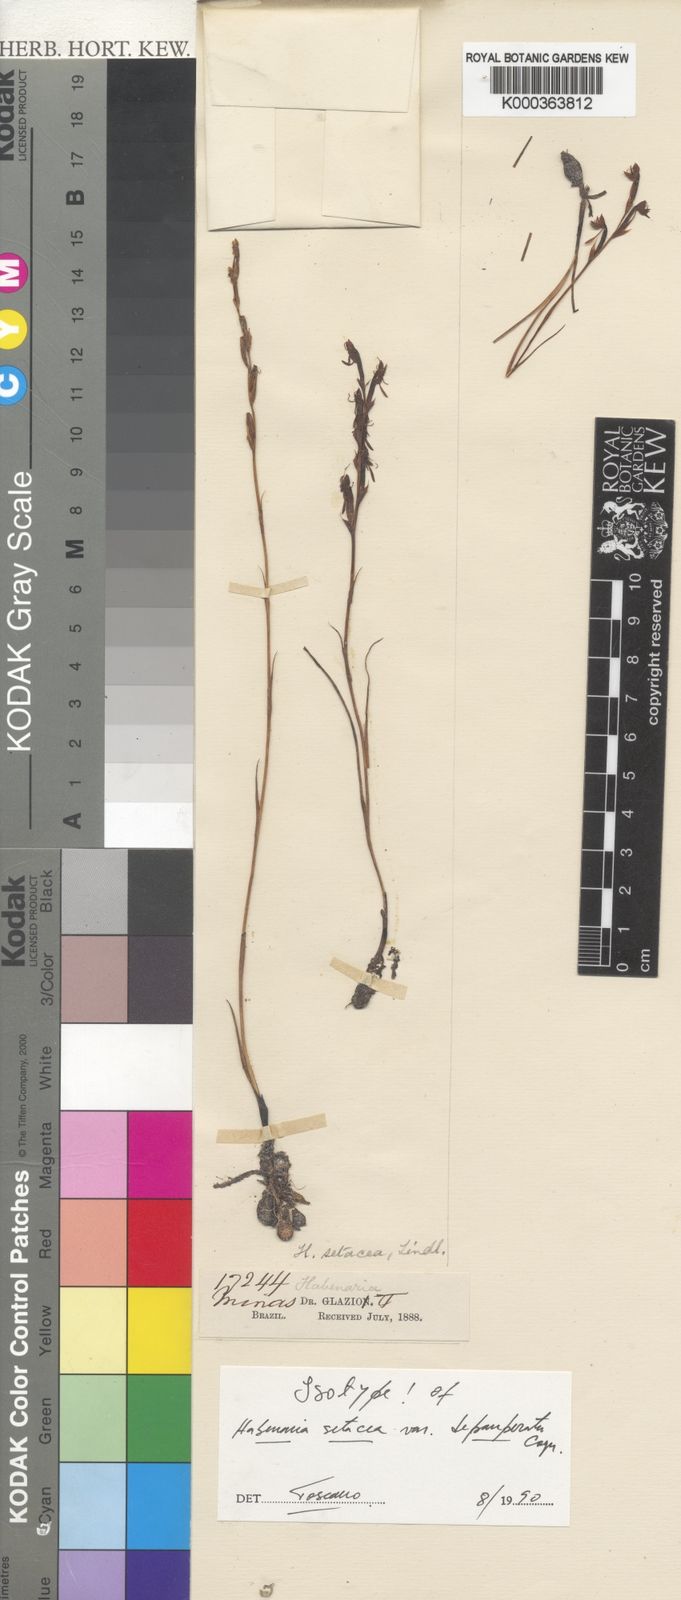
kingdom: Plantae
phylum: Tracheophyta
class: Liliopsida
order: Asparagales
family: Orchidaceae
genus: Habenaria
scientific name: Habenaria setacea
